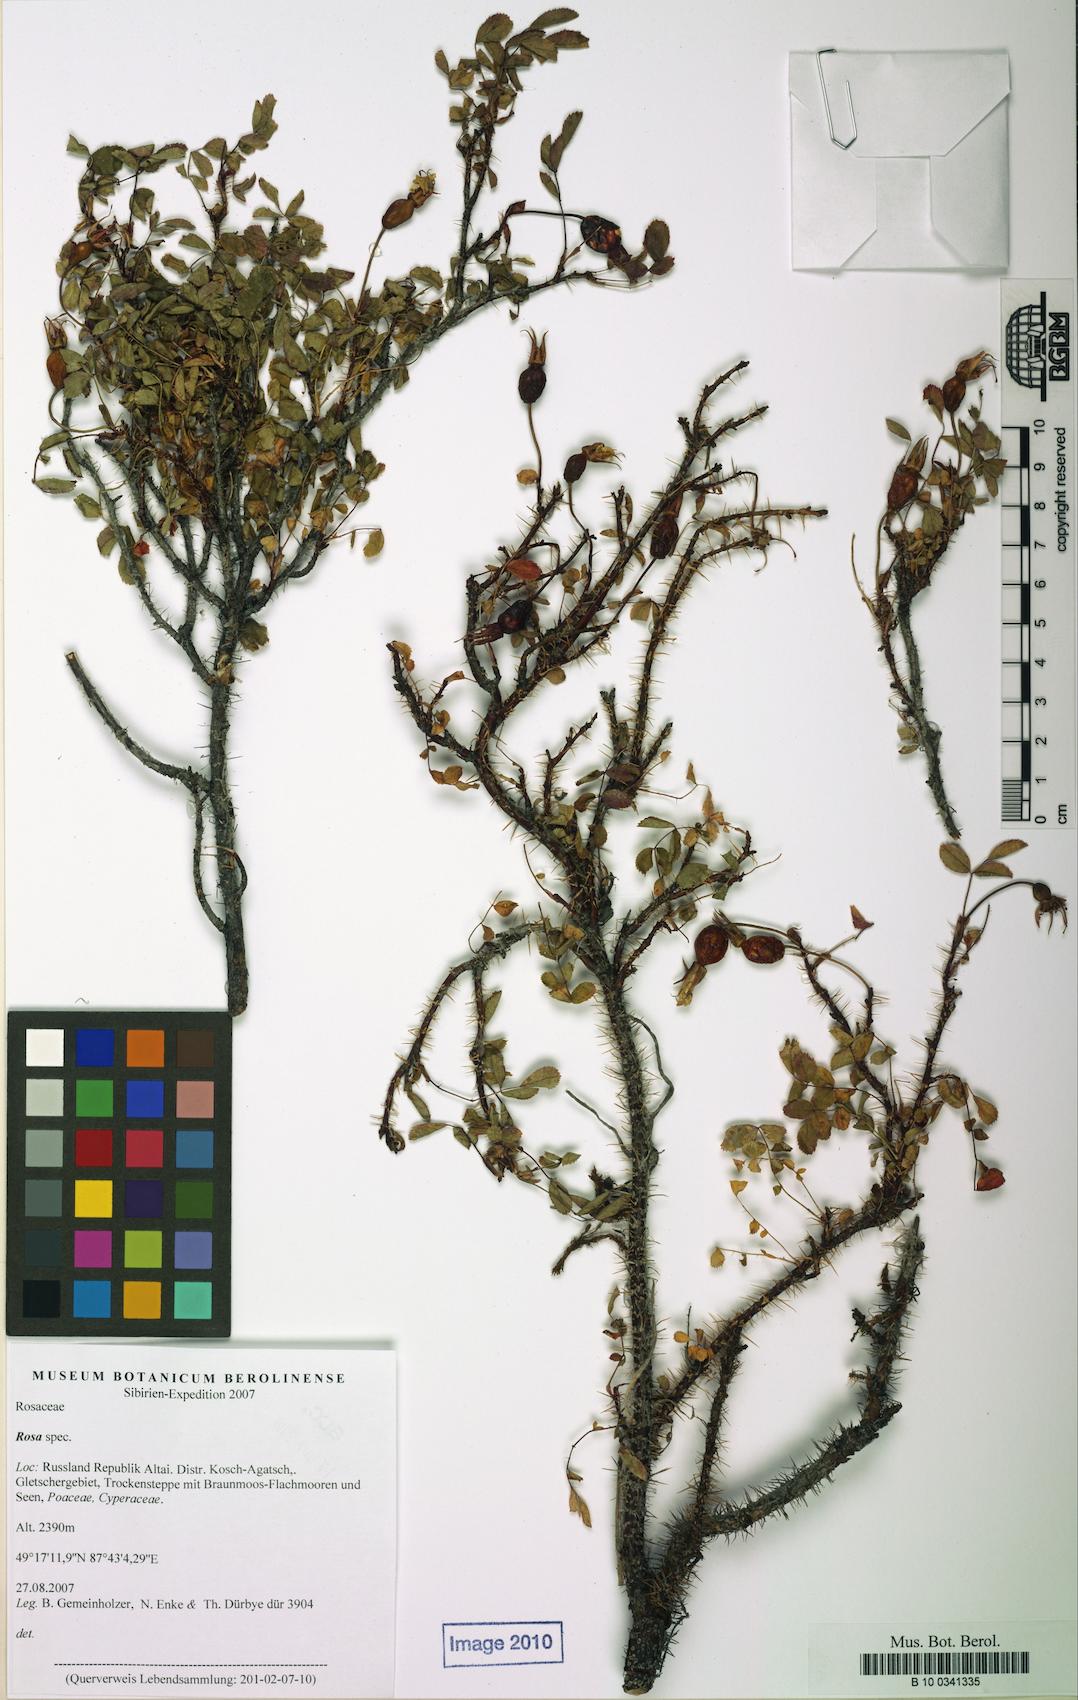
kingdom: Plantae
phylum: Tracheophyta
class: Magnoliopsida
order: Rosales
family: Rosaceae
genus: Rosa
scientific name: Rosa
